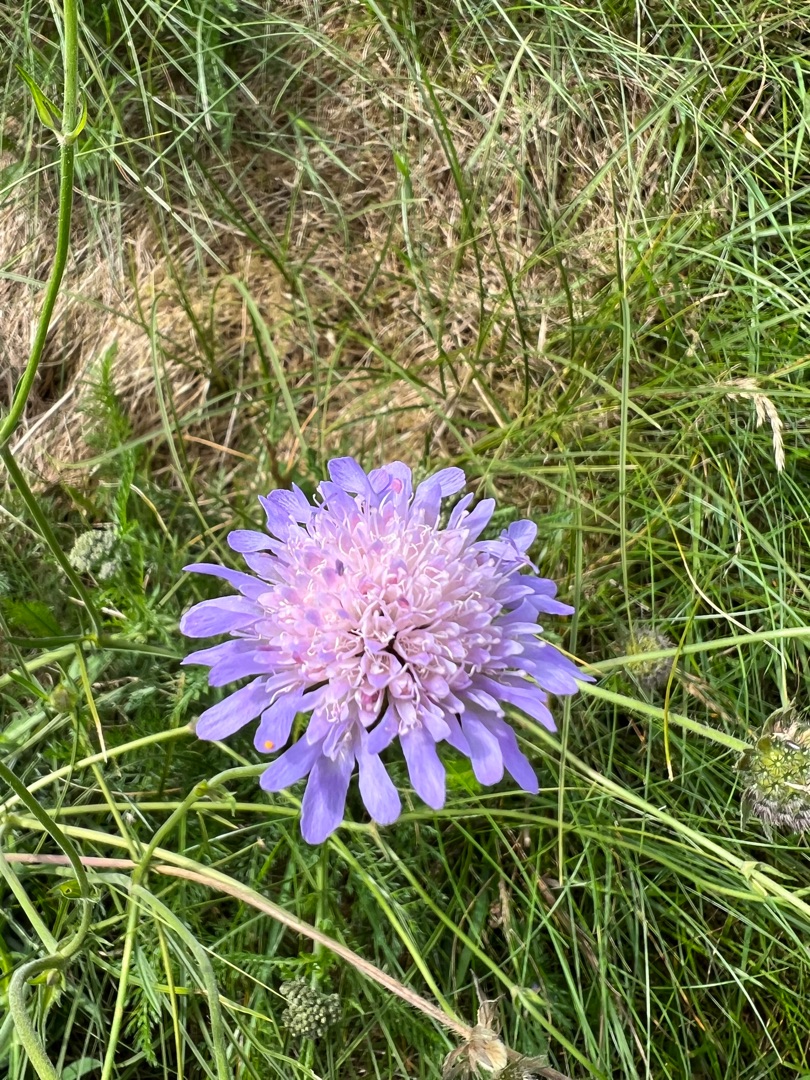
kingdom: Plantae
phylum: Tracheophyta
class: Magnoliopsida
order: Dipsacales
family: Caprifoliaceae
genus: Knautia
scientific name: Knautia arvensis
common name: Blåhat
